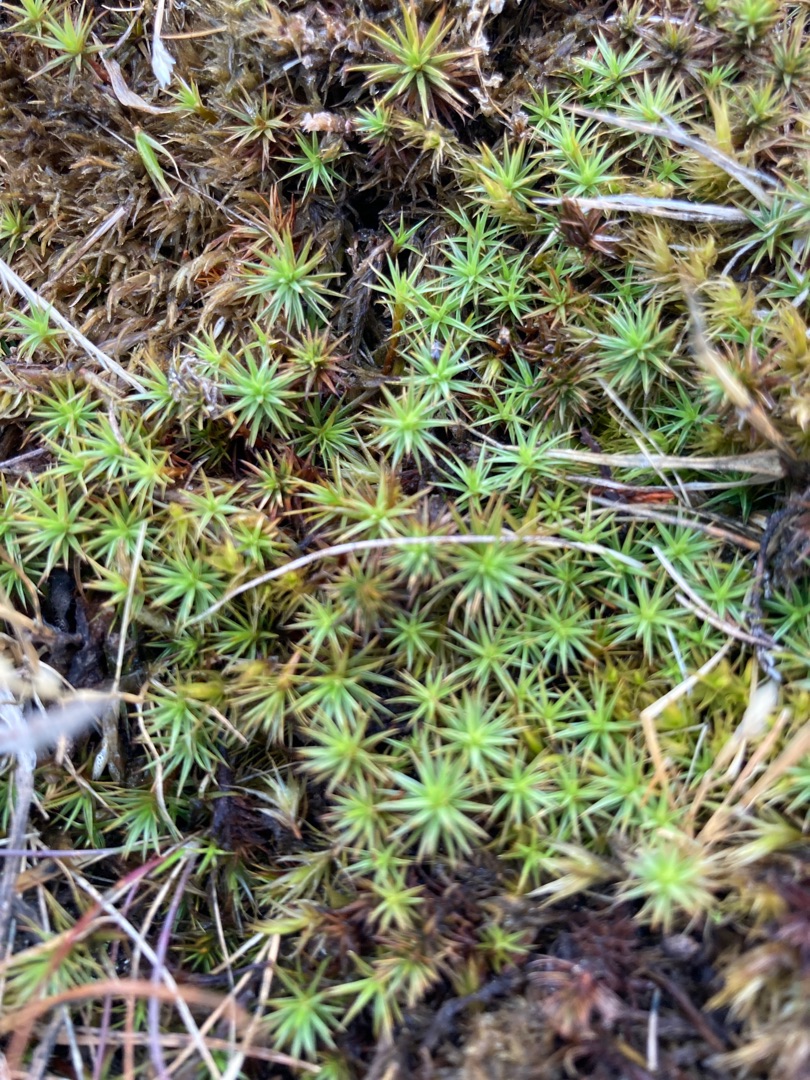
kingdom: Plantae
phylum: Bryophyta
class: Polytrichopsida
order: Polytrichales
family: Polytrichaceae
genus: Polytrichum
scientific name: Polytrichum juniperinum
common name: Ene-jomfruhår
